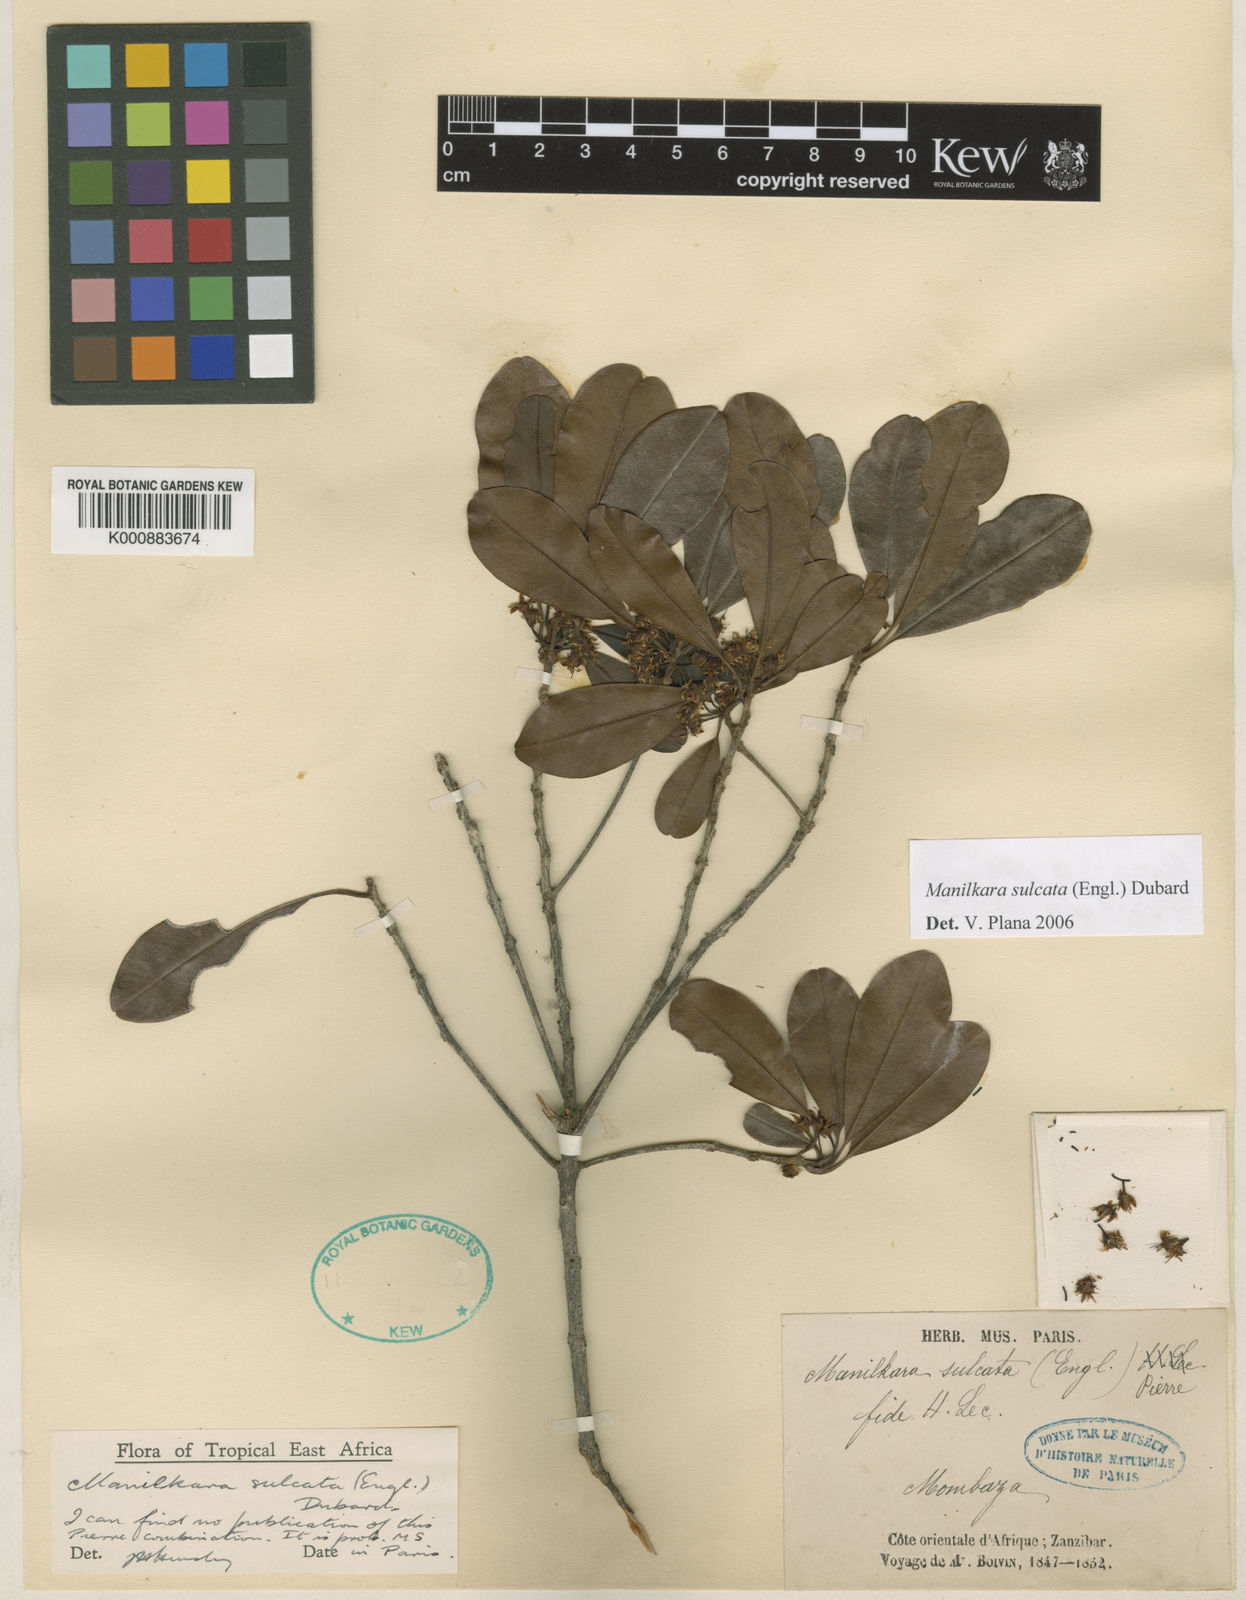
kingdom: Plantae
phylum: Tracheophyta
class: Magnoliopsida
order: Ericales
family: Sapotaceae
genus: Manilkara
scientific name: Manilkara sulcata
